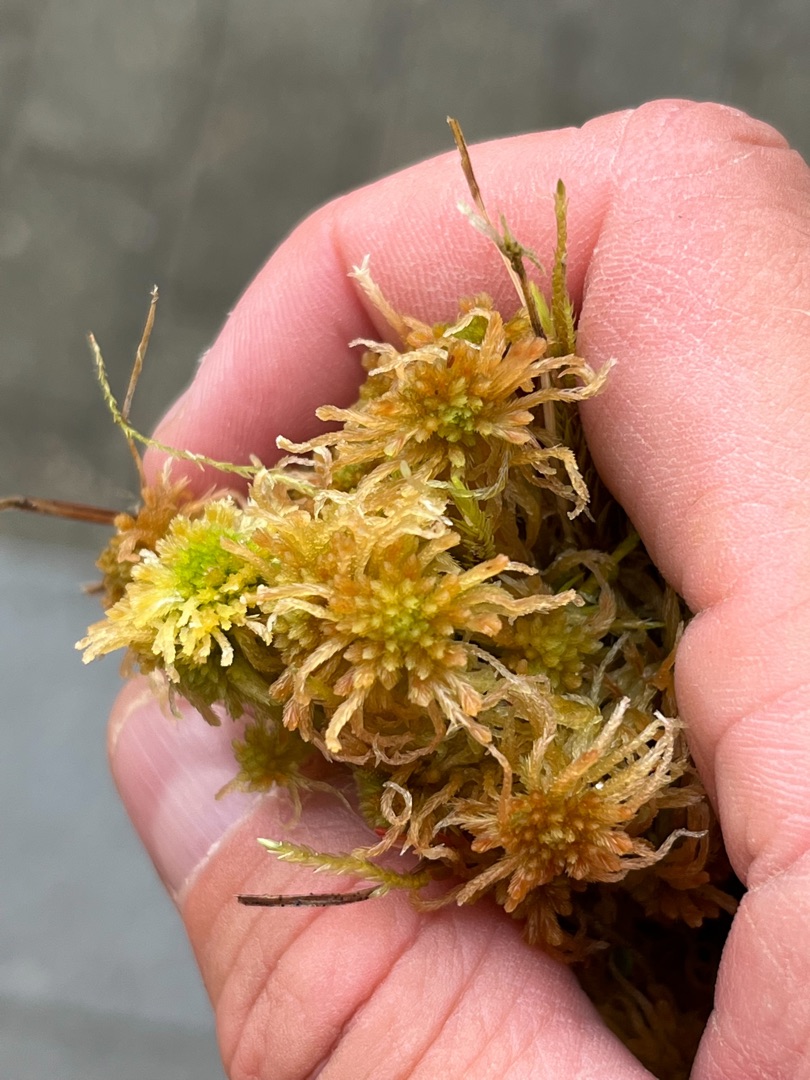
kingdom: Plantae
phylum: Bryophyta
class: Sphagnopsida
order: Sphagnales
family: Sphagnaceae
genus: Sphagnum
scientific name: Sphagnum angustifolium
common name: Rødgrenet tørvemos
